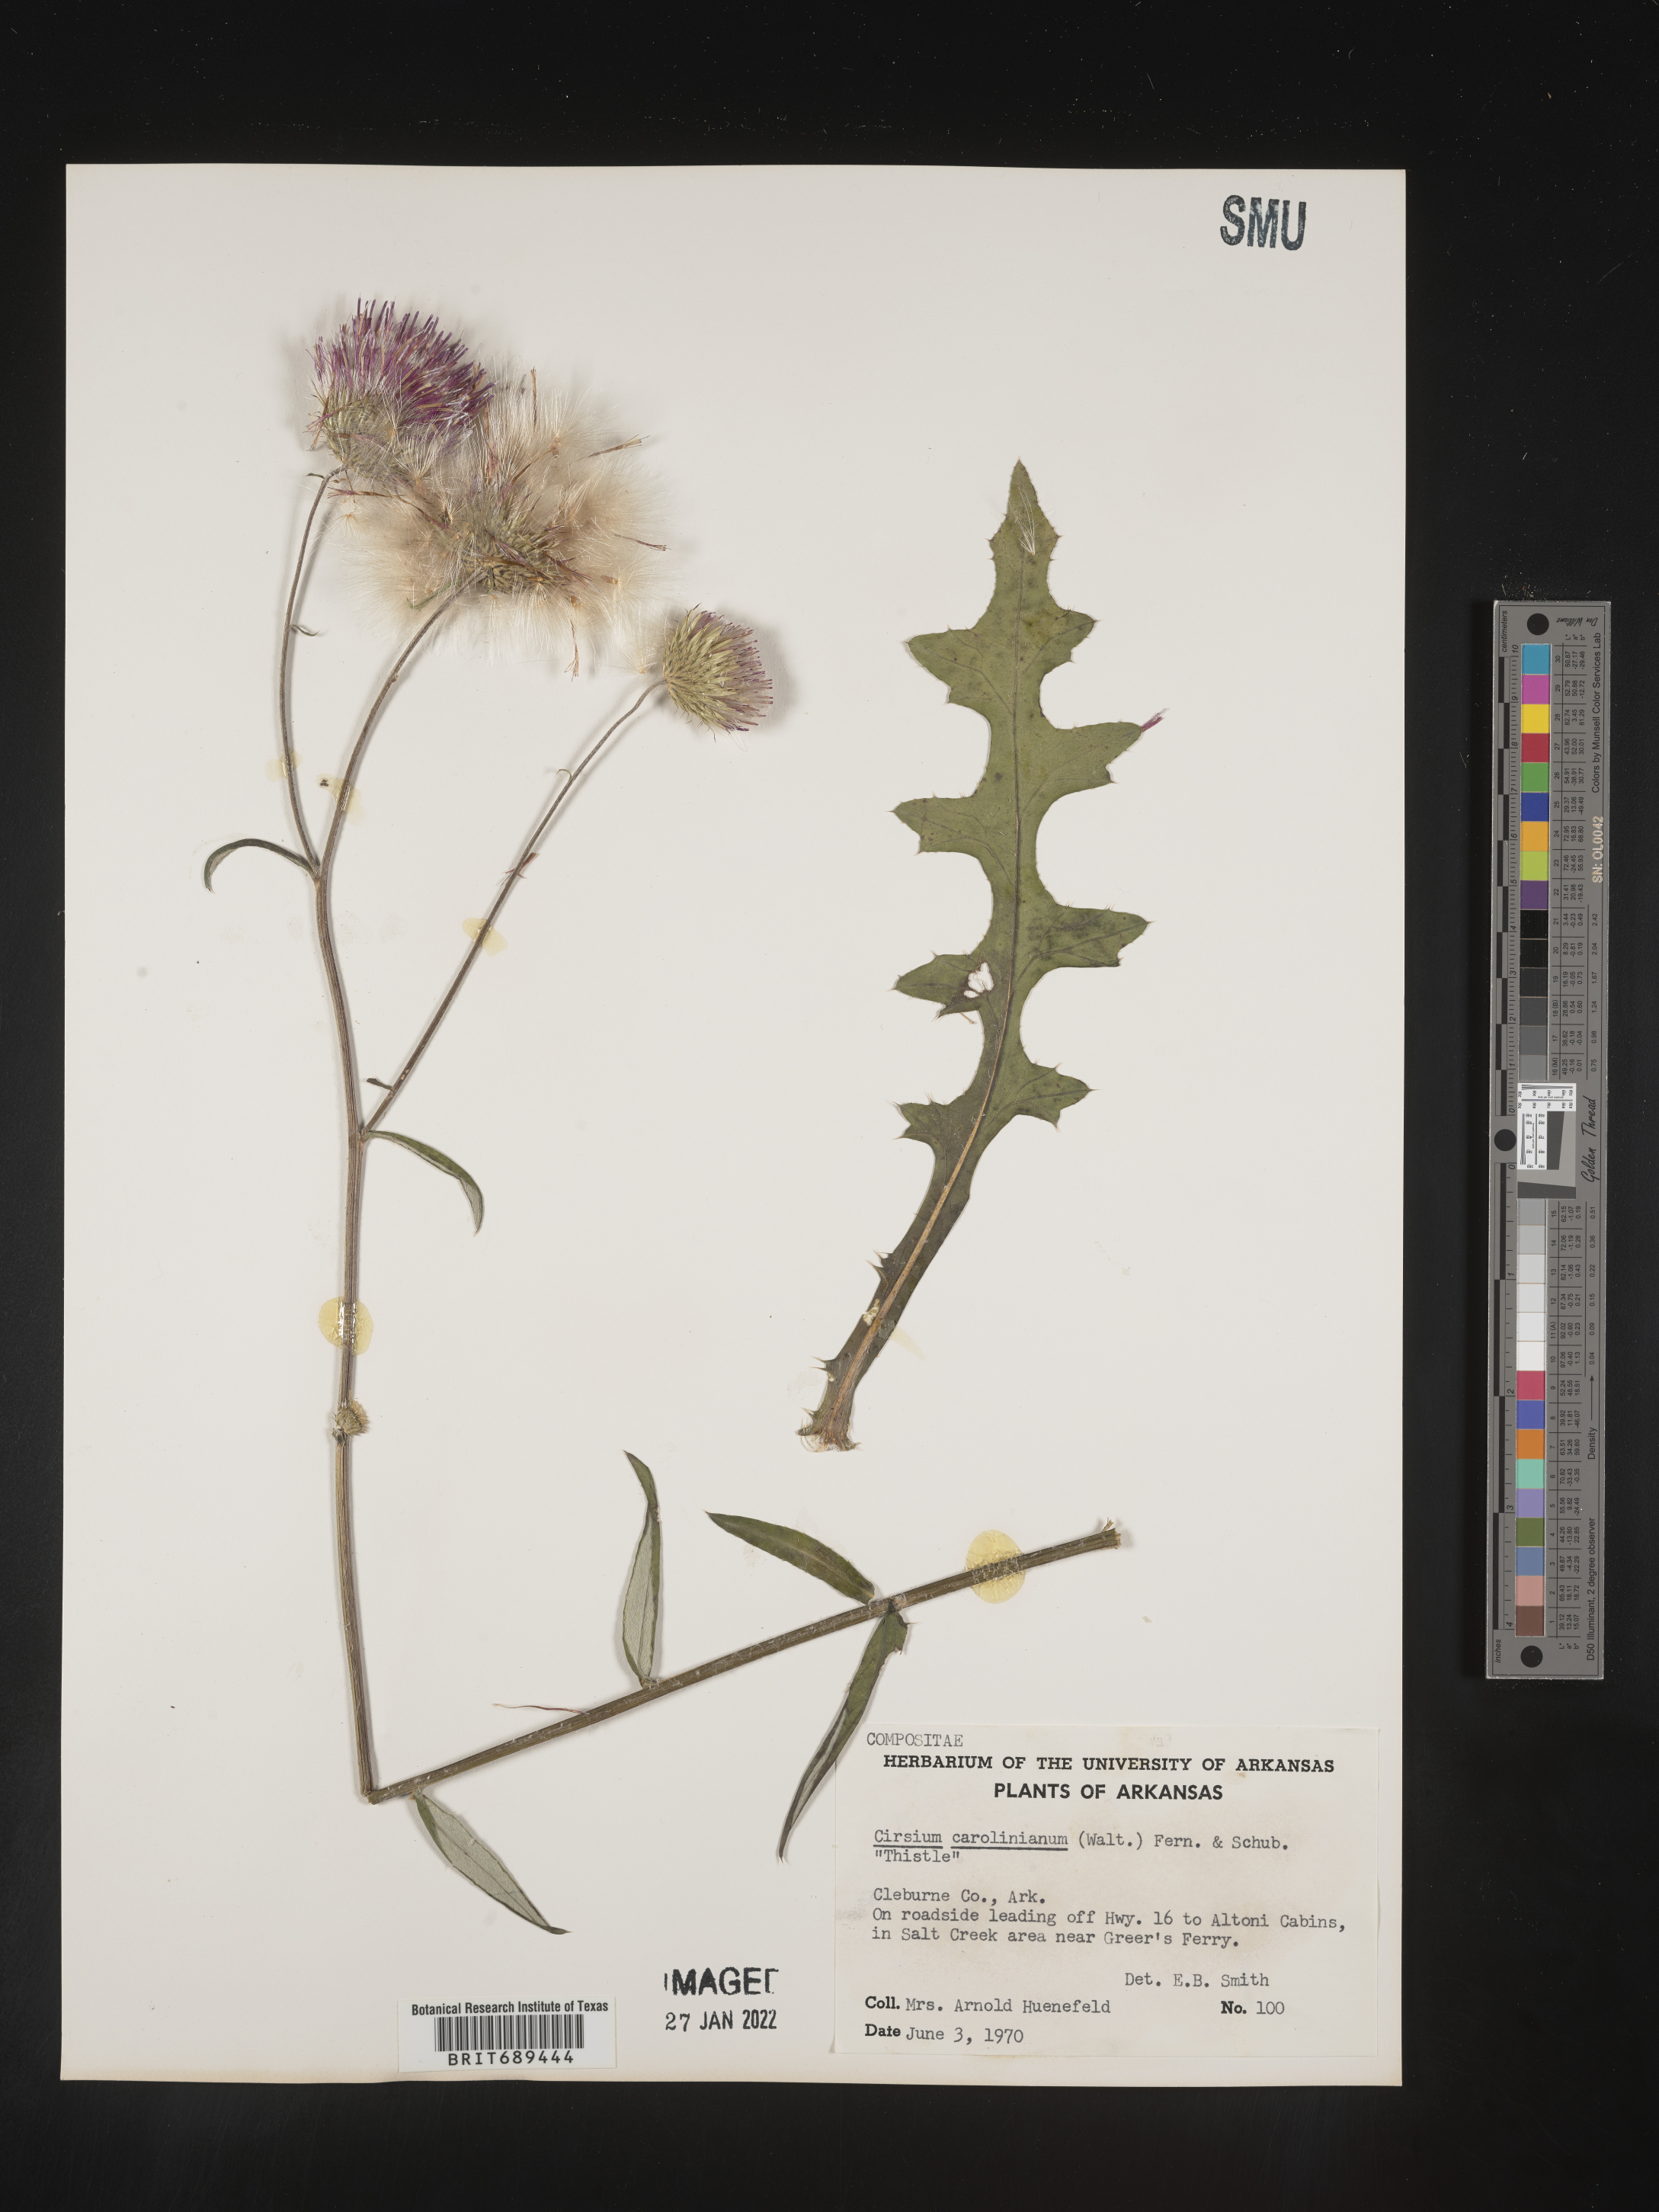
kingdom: Plantae
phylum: Tracheophyta
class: Magnoliopsida
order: Asterales
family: Asteraceae
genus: Cirsium
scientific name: Cirsium carolinianum
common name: Carolina thistle
